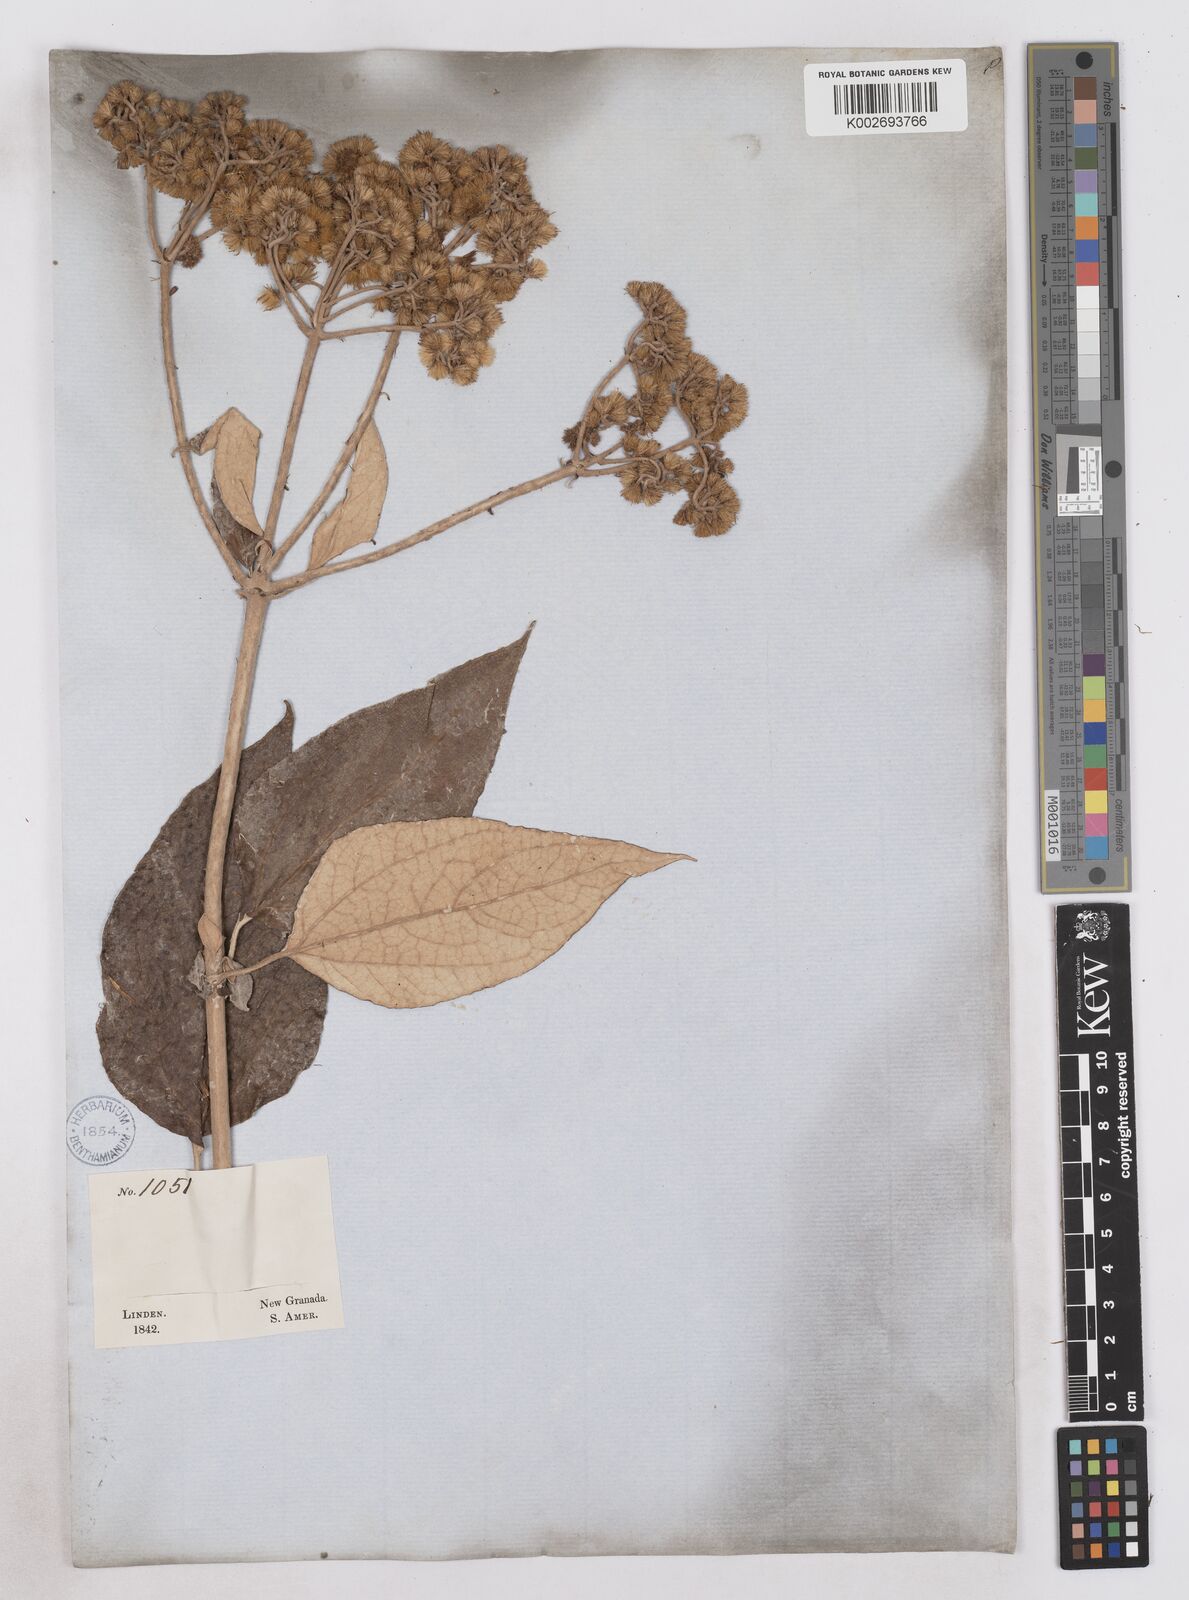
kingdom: Plantae
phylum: Tracheophyta
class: Magnoliopsida
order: Asterales
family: Asteraceae
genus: Platycarphella
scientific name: Platycarphella
